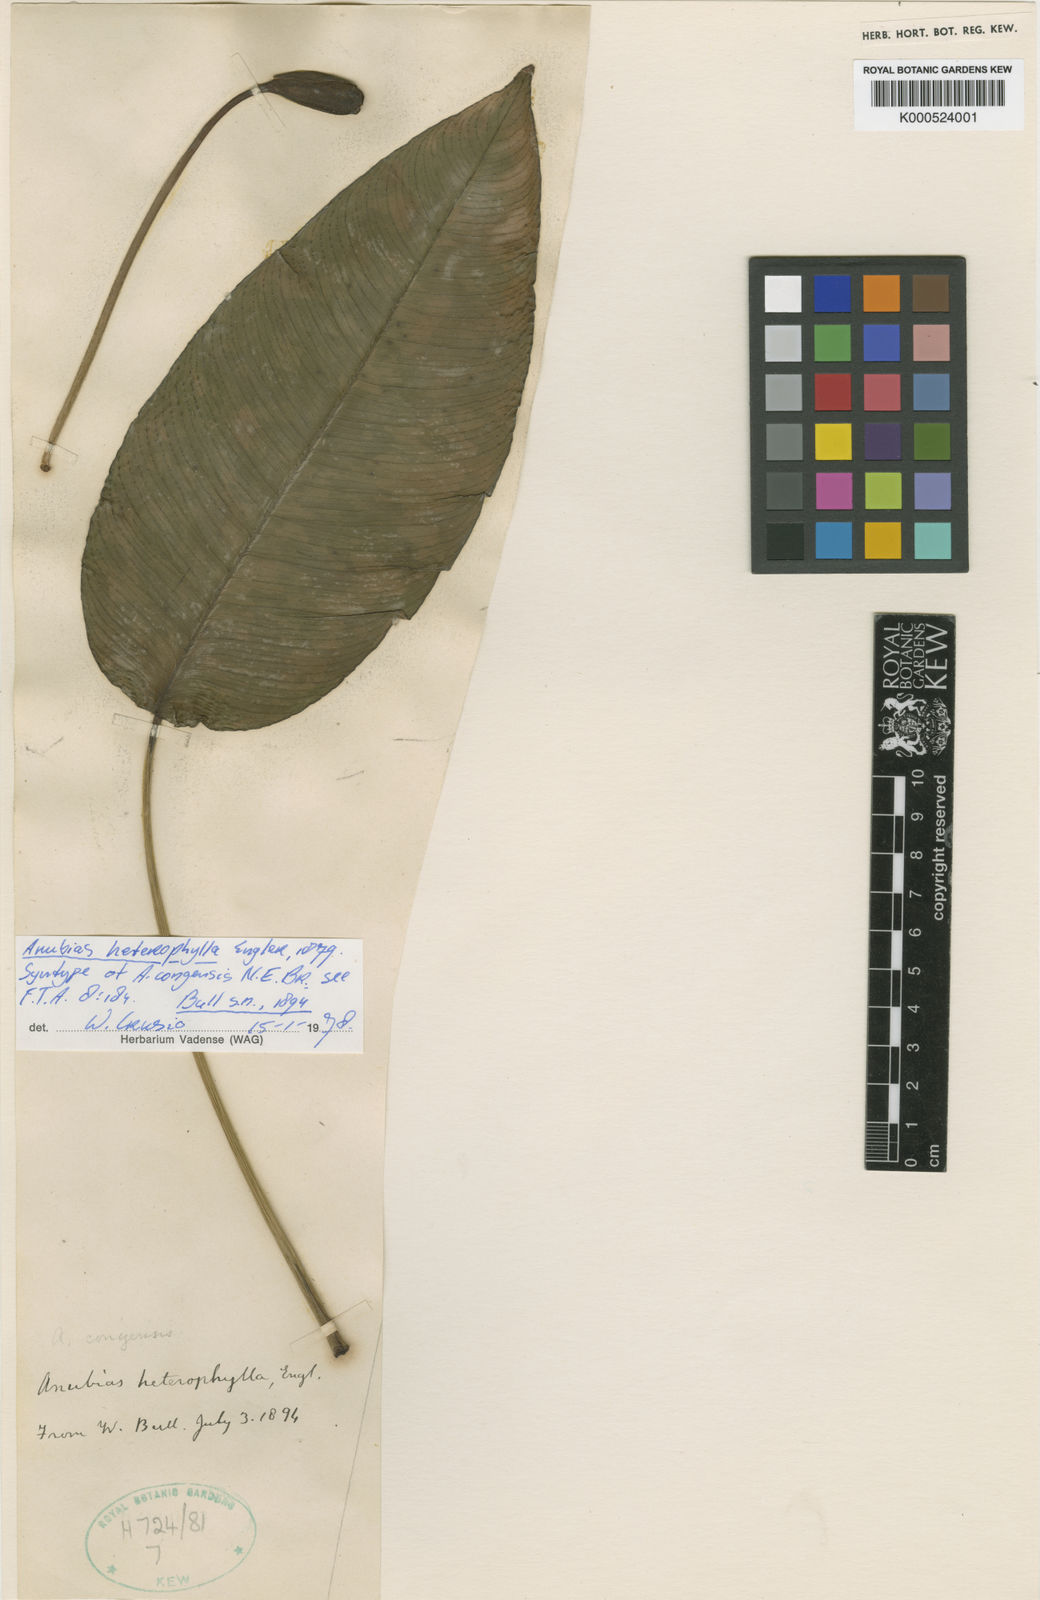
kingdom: Plantae
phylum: Tracheophyta
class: Liliopsida
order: Alismatales
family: Araceae
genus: Anubias
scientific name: Anubias heterophylla
